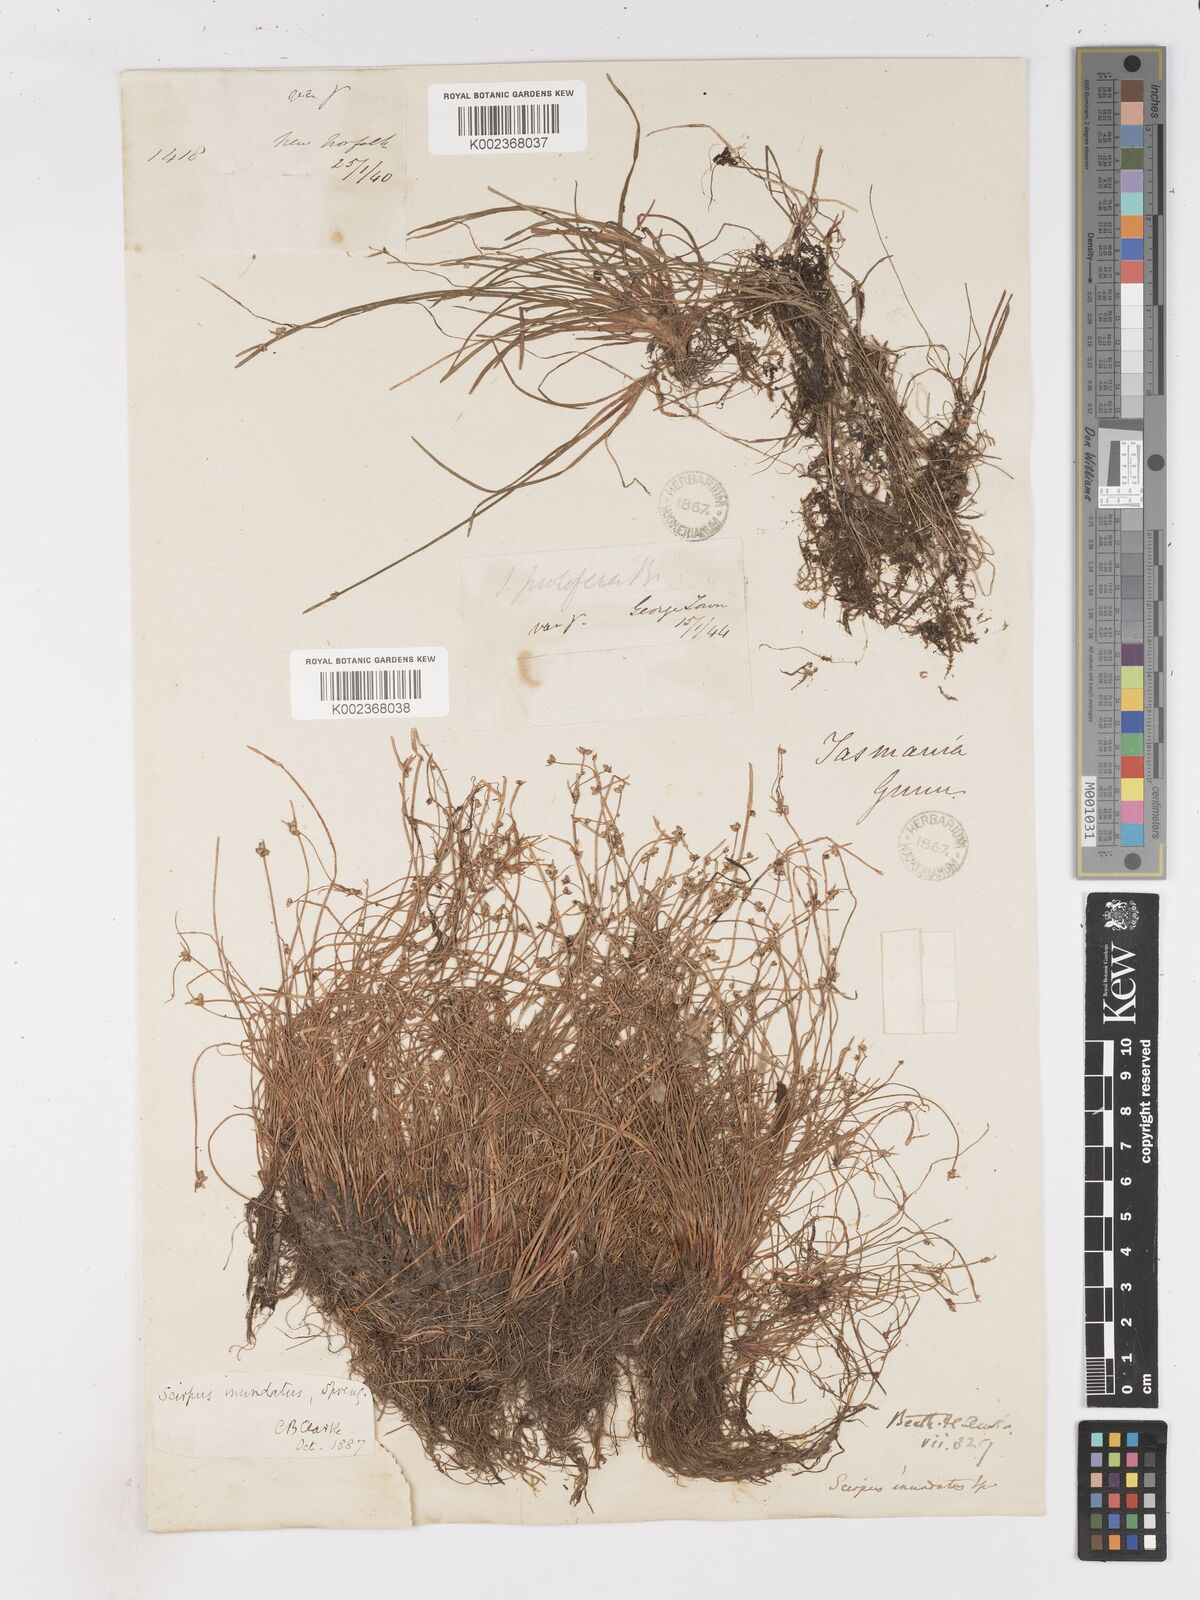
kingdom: Plantae
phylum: Tracheophyta
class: Liliopsida
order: Poales
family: Cyperaceae
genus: Isolepis
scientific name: Isolepis inundata
